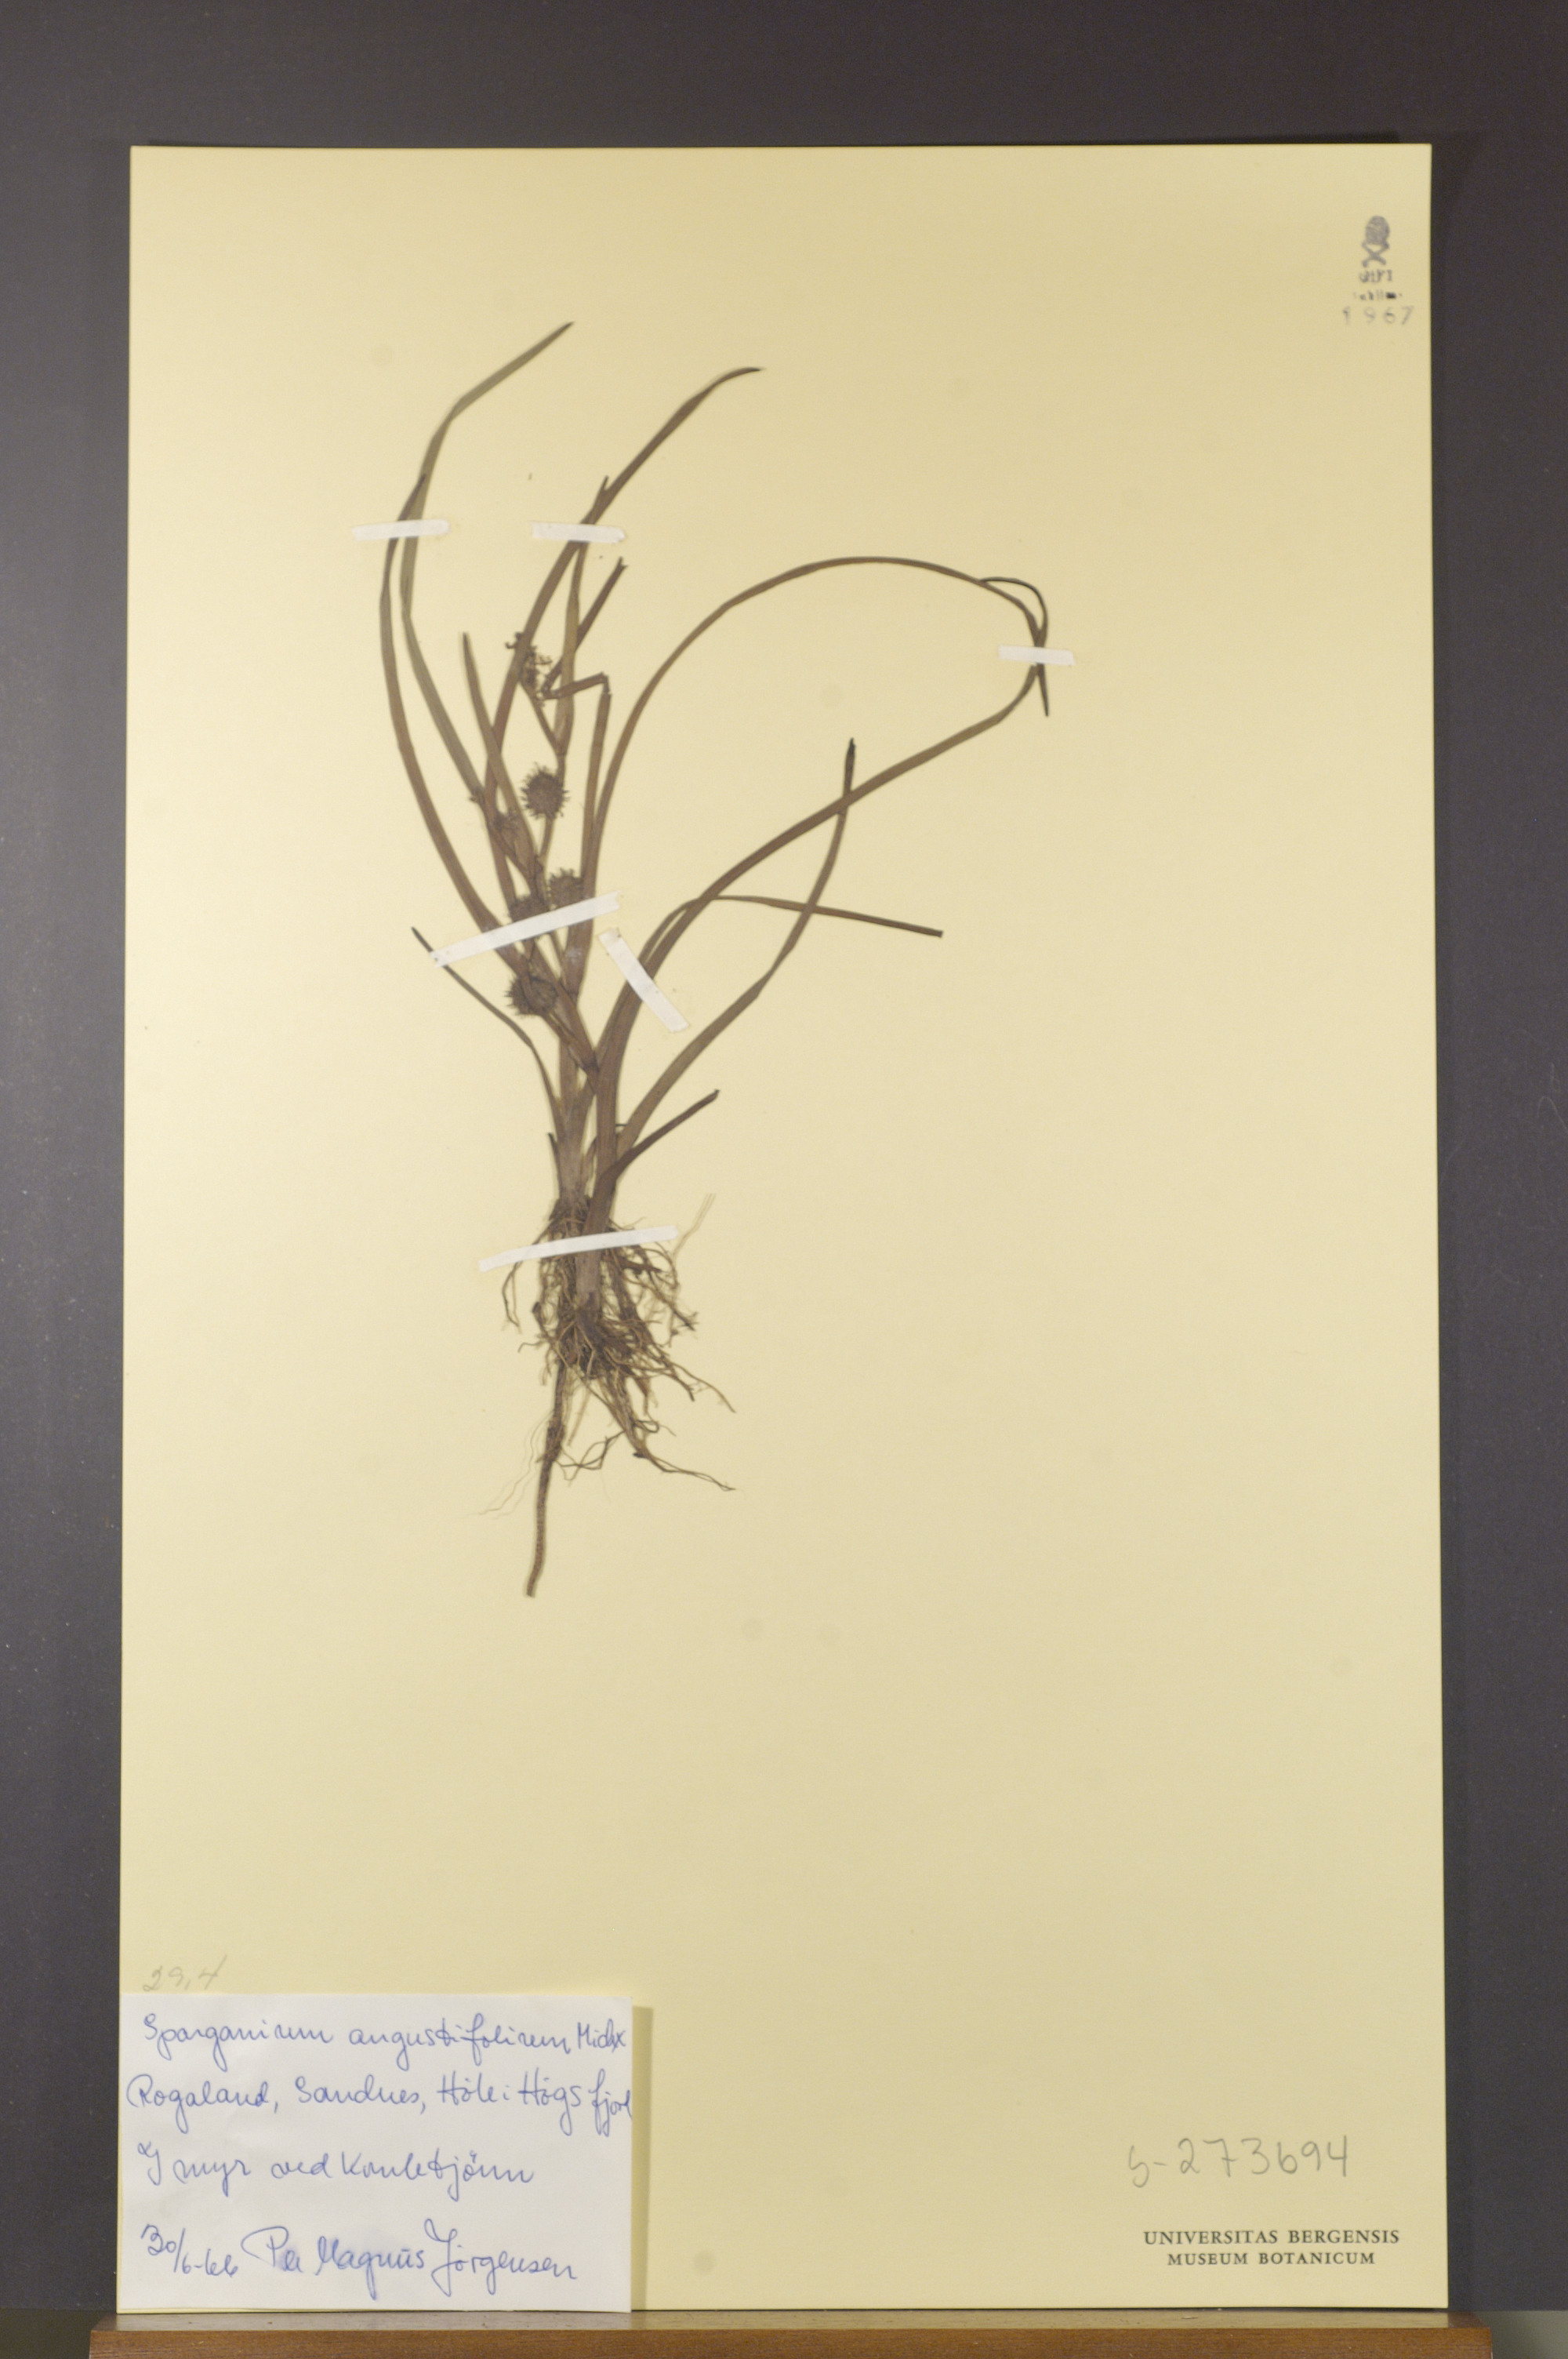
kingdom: Plantae
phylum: Tracheophyta
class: Liliopsida
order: Poales
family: Typhaceae
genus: Sparganium
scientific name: Sparganium angustifolium
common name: Floating bur-reed
